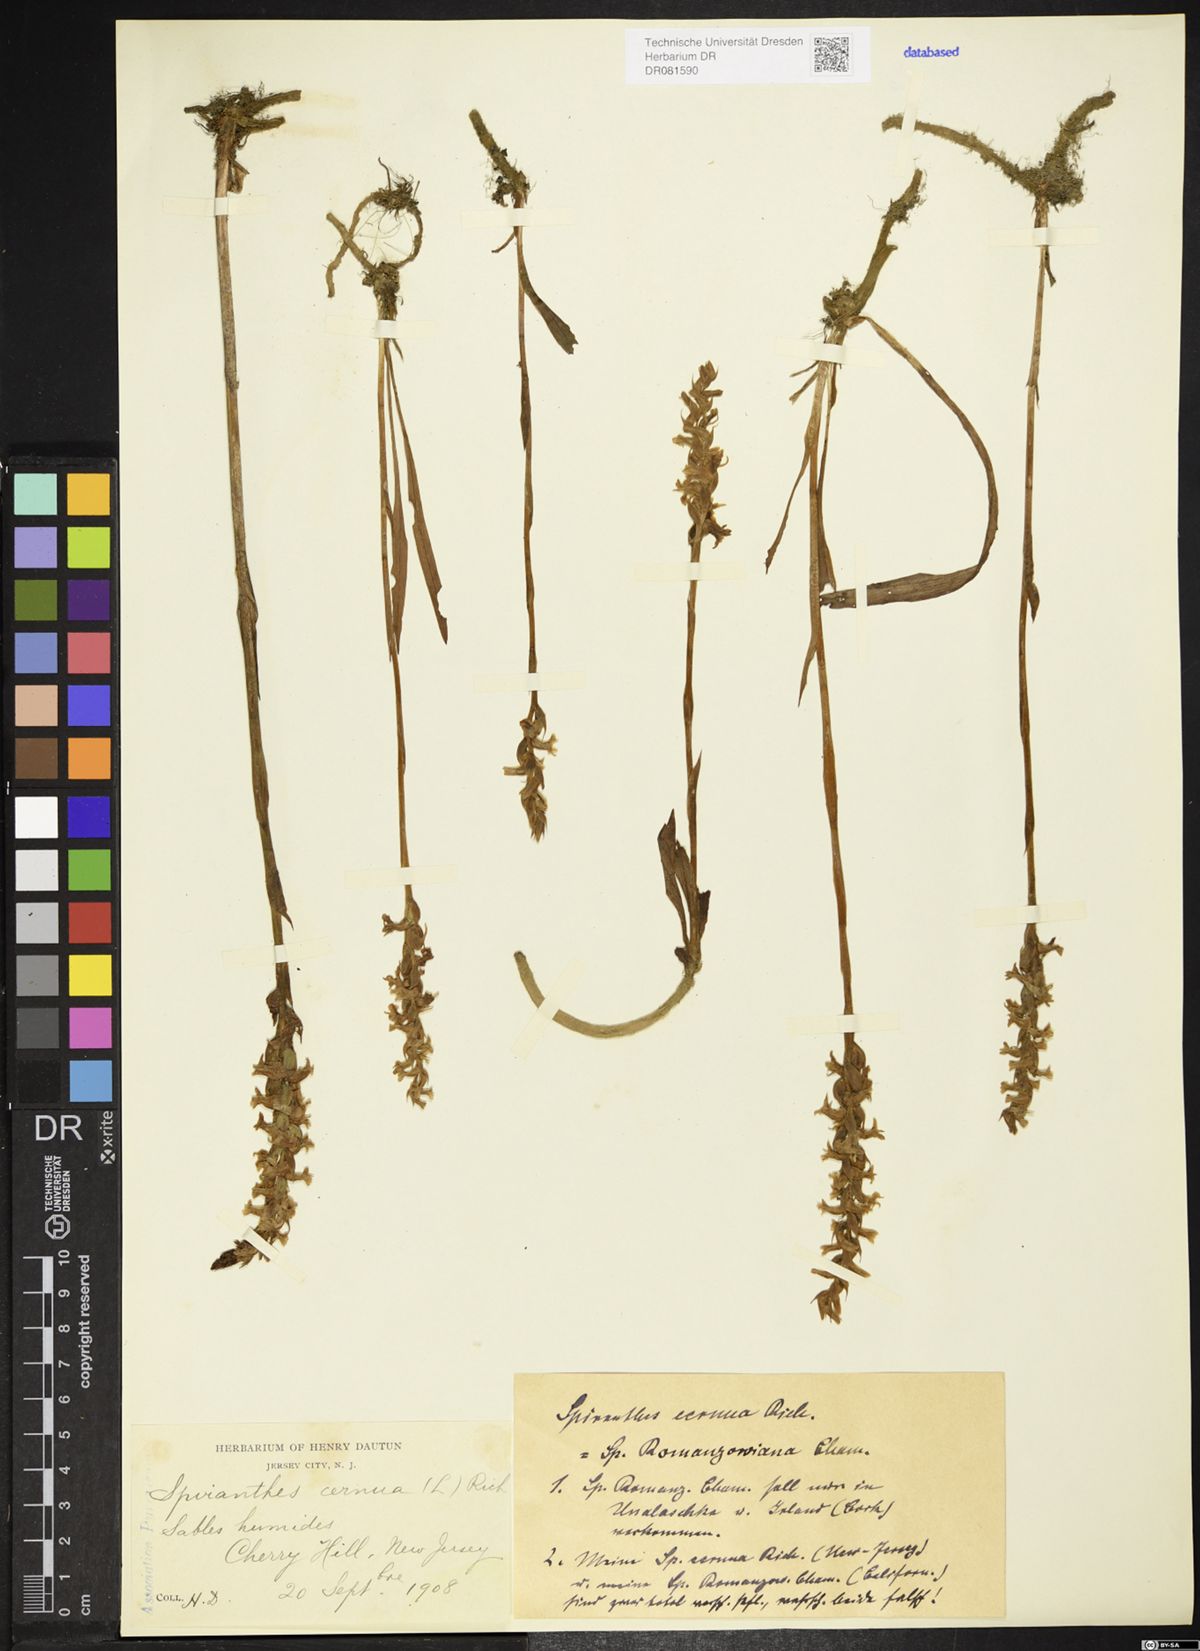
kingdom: Plantae
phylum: Tracheophyta
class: Liliopsida
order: Asparagales
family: Orchidaceae
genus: Spiranthes
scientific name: Spiranthes cernua
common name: Dropping ladies'-tresses
